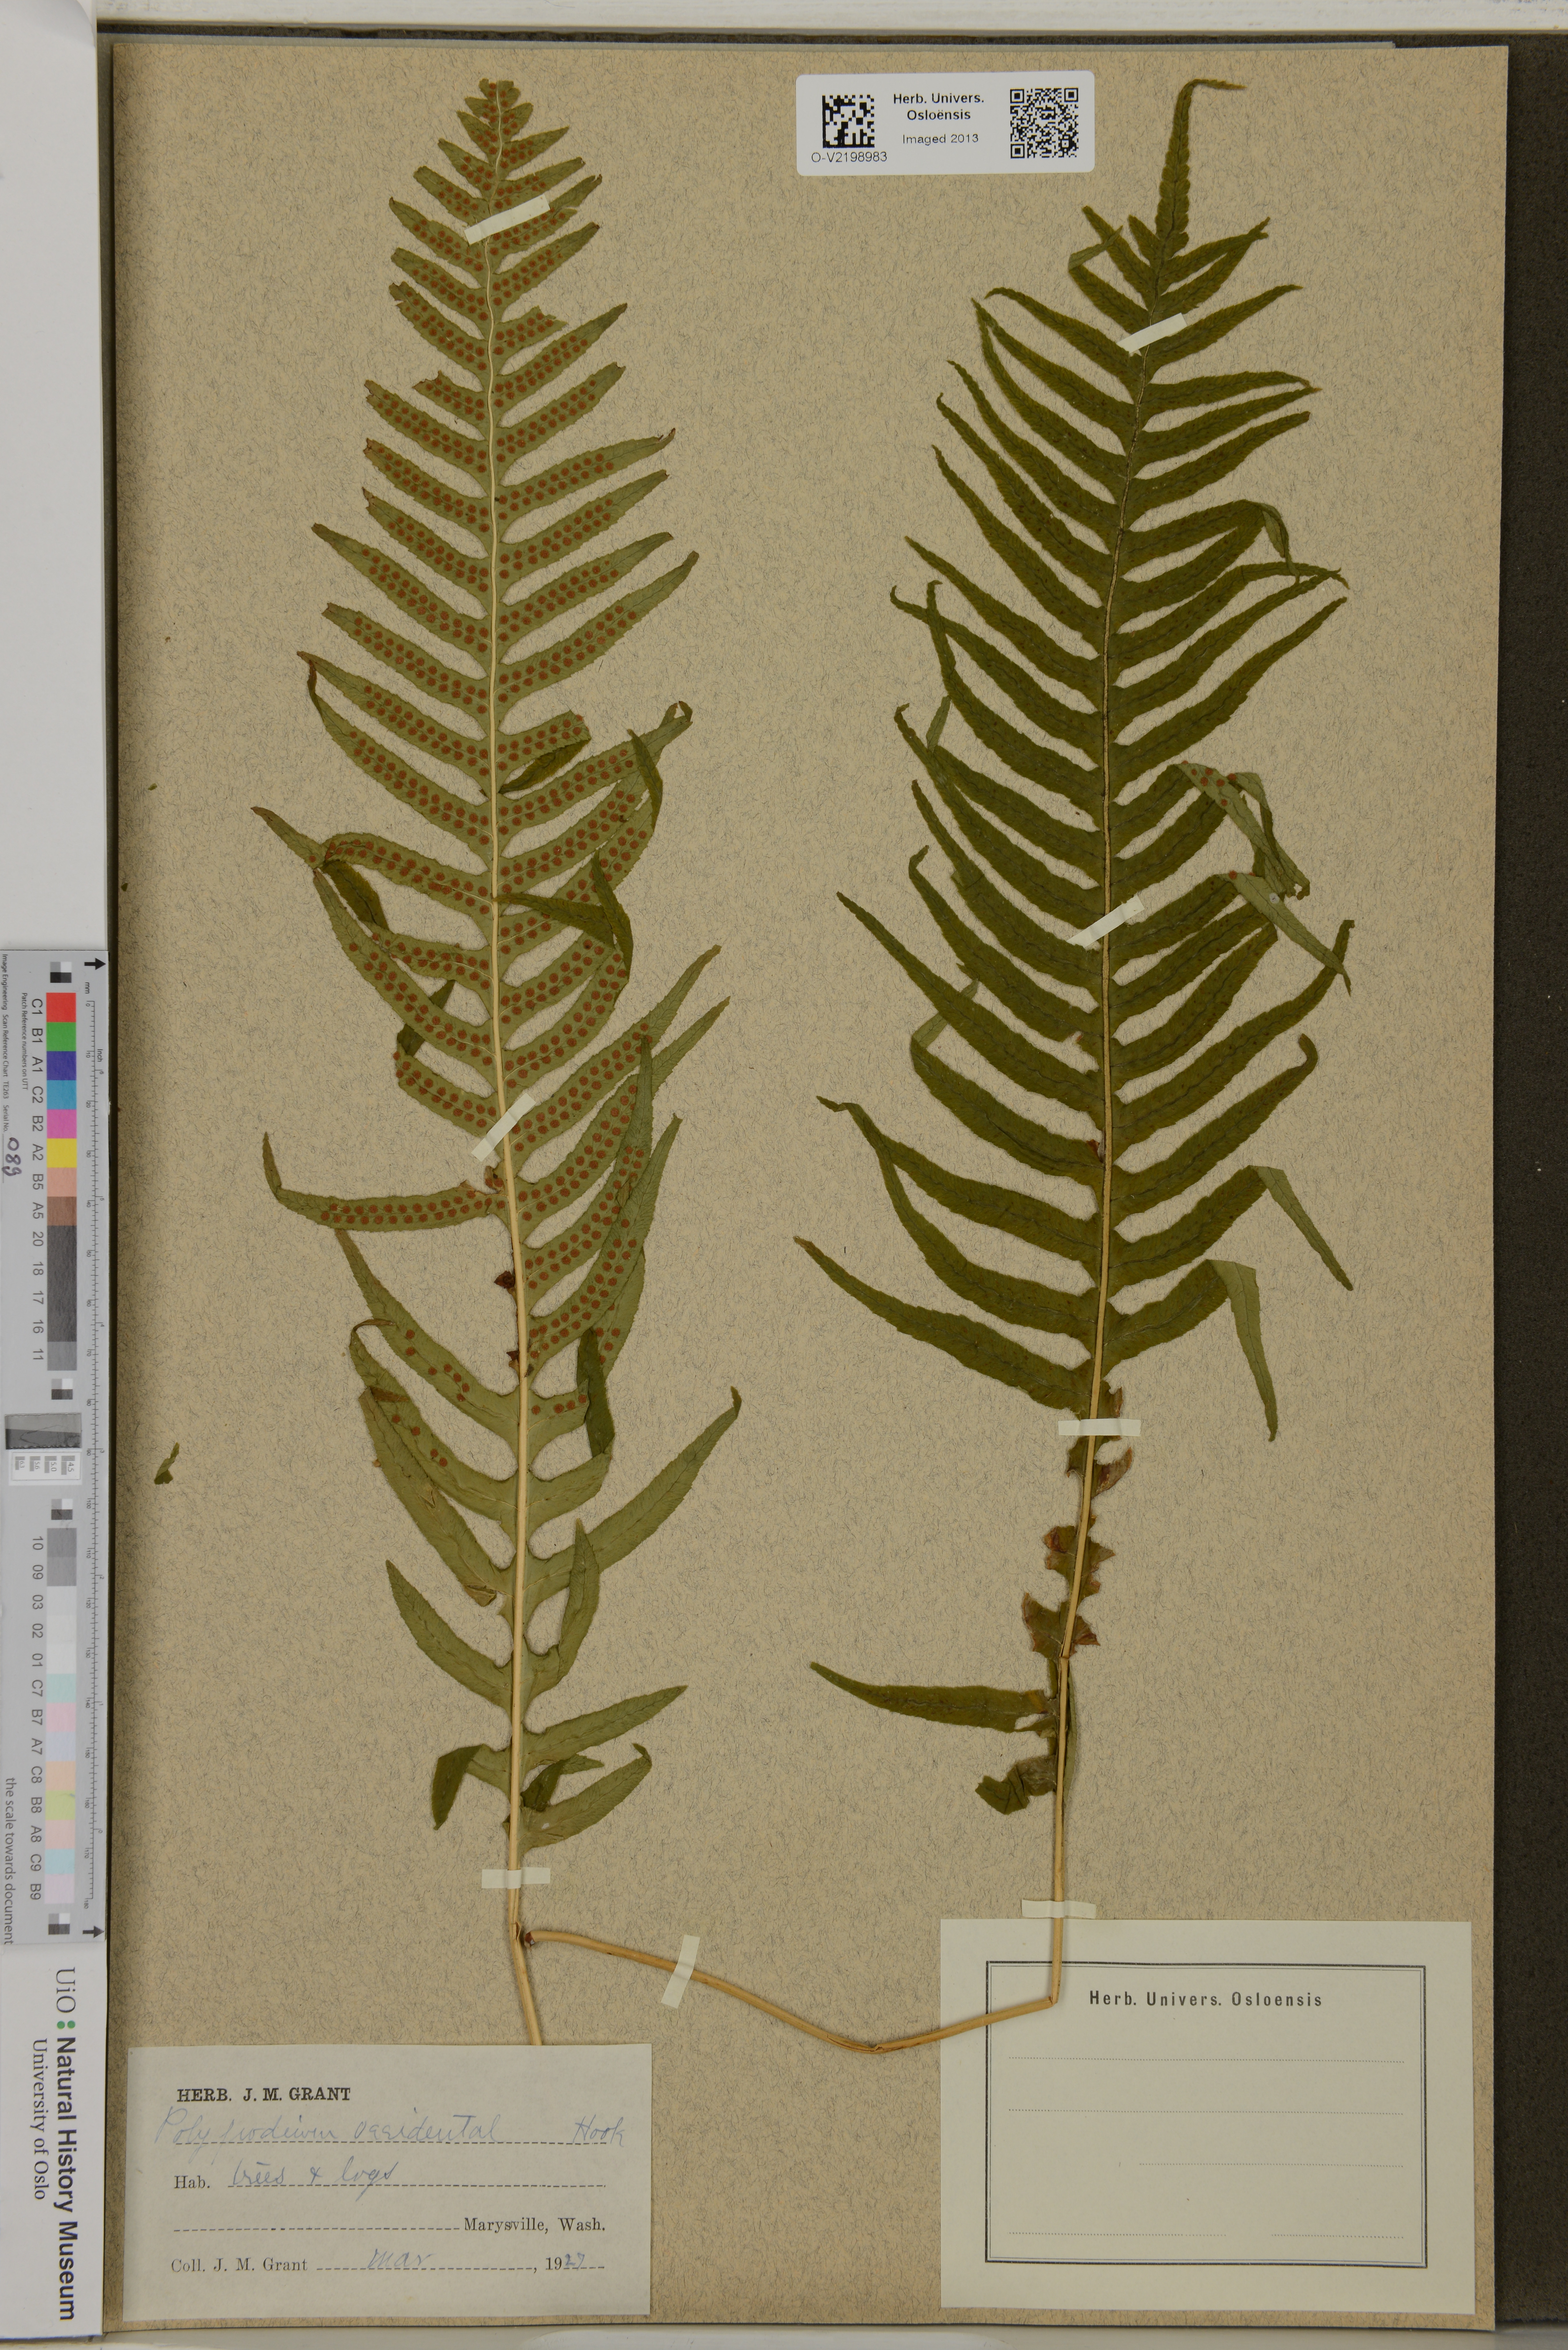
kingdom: Plantae
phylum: Tracheophyta
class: Polypodiopsida
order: Polypodiales
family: Polypodiaceae
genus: Polypodium
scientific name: Polypodium glycyrrhiza
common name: Licorice fern
